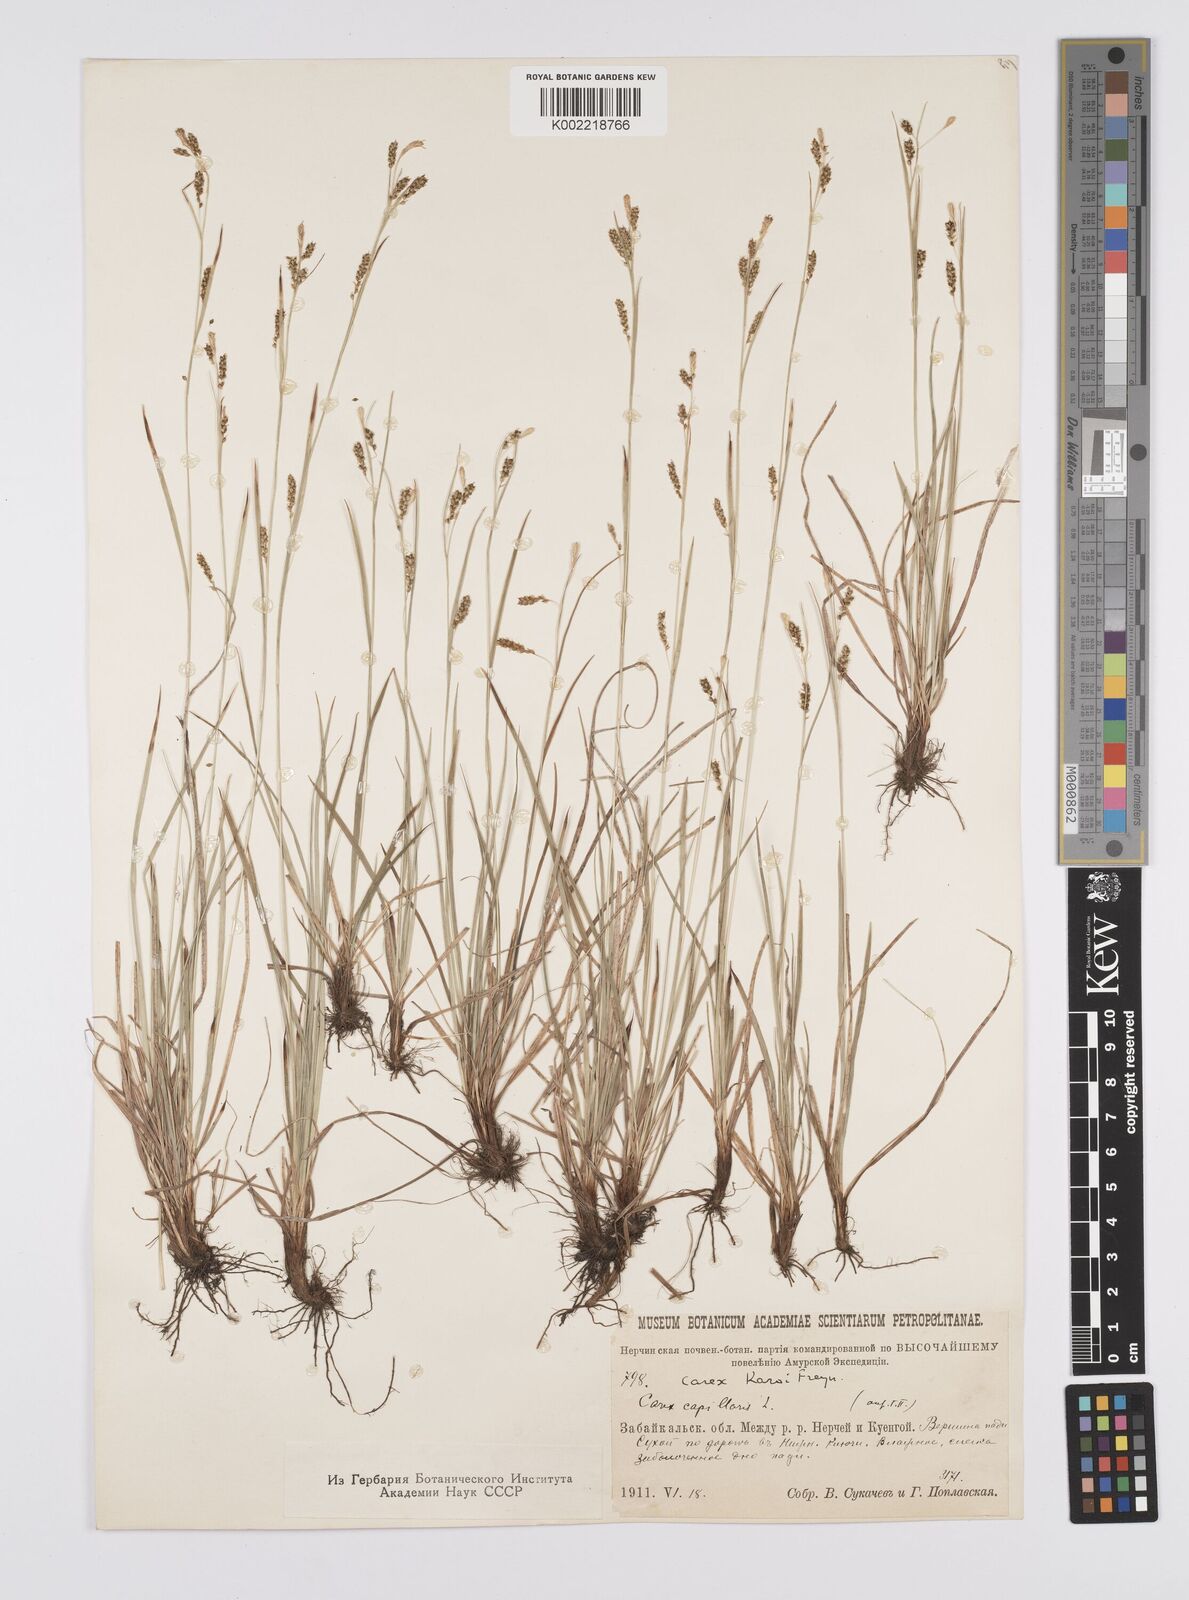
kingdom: Plantae
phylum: Tracheophyta
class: Liliopsida
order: Poales
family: Cyperaceae
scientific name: Cyperaceae
